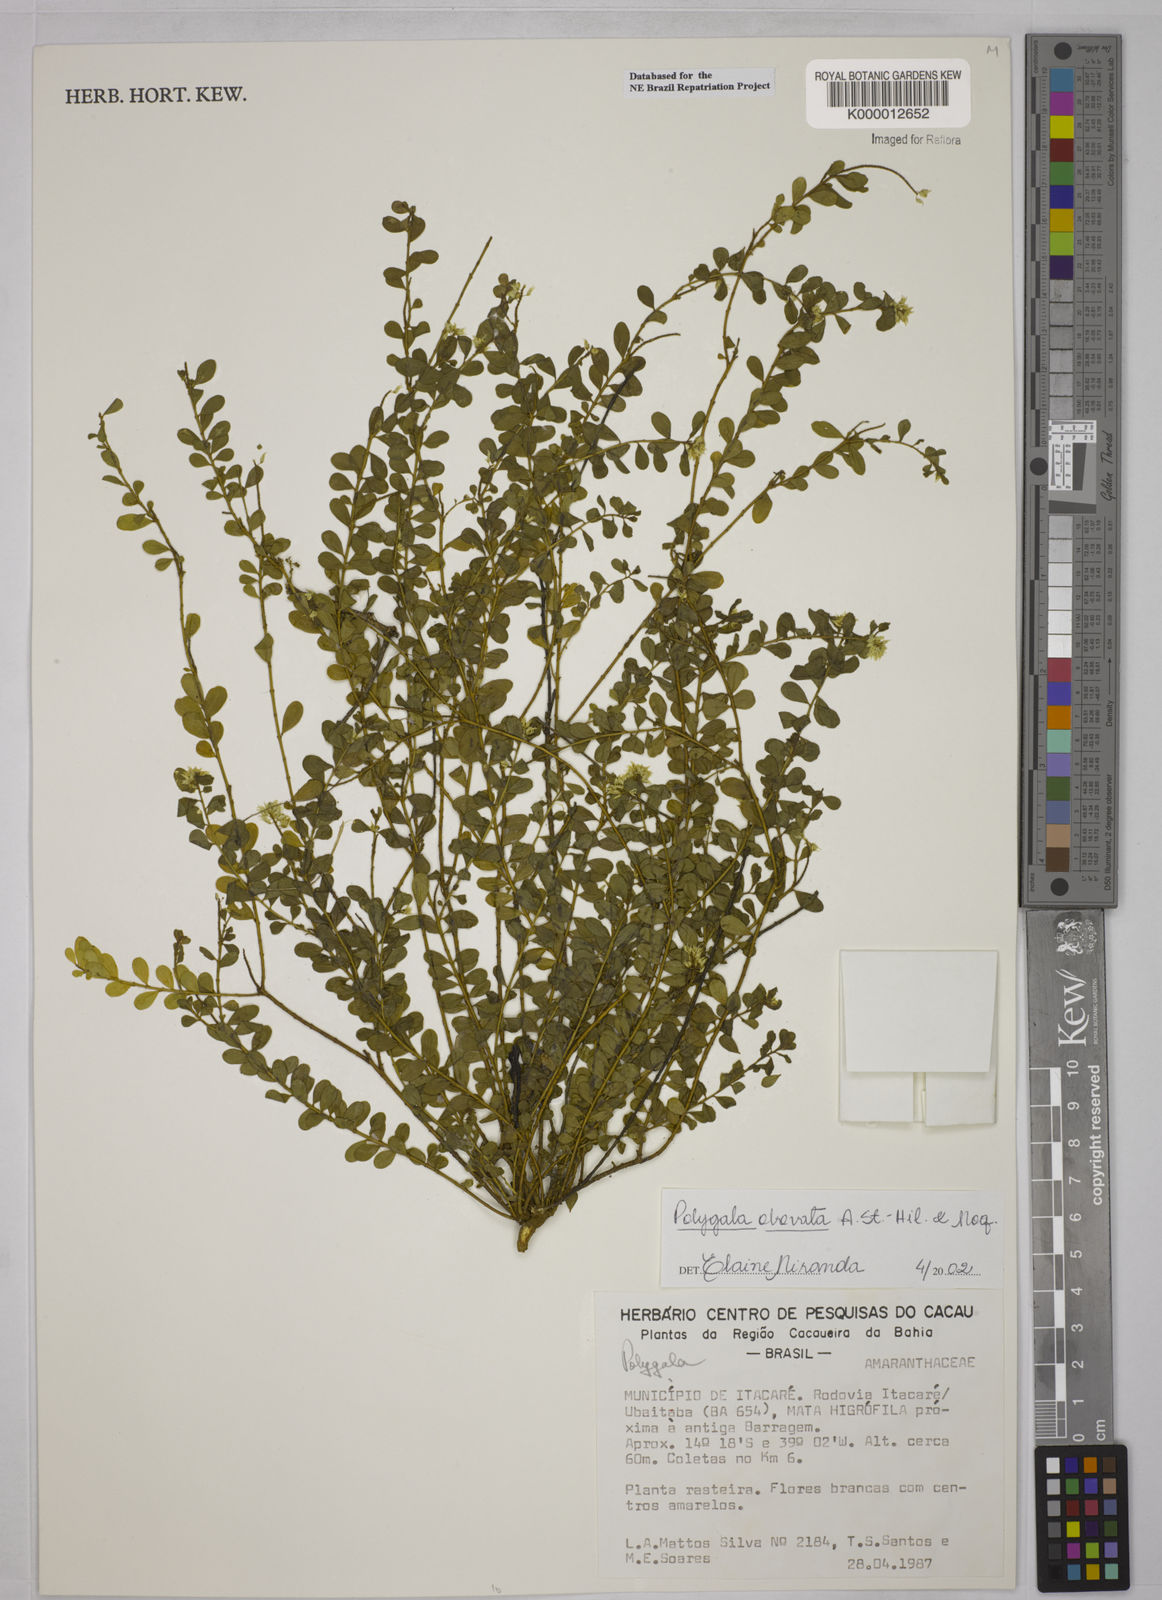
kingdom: Plantae
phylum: Tracheophyta
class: Magnoliopsida
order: Fabales
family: Polygalaceae
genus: Polygala
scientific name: Polygala obovata
